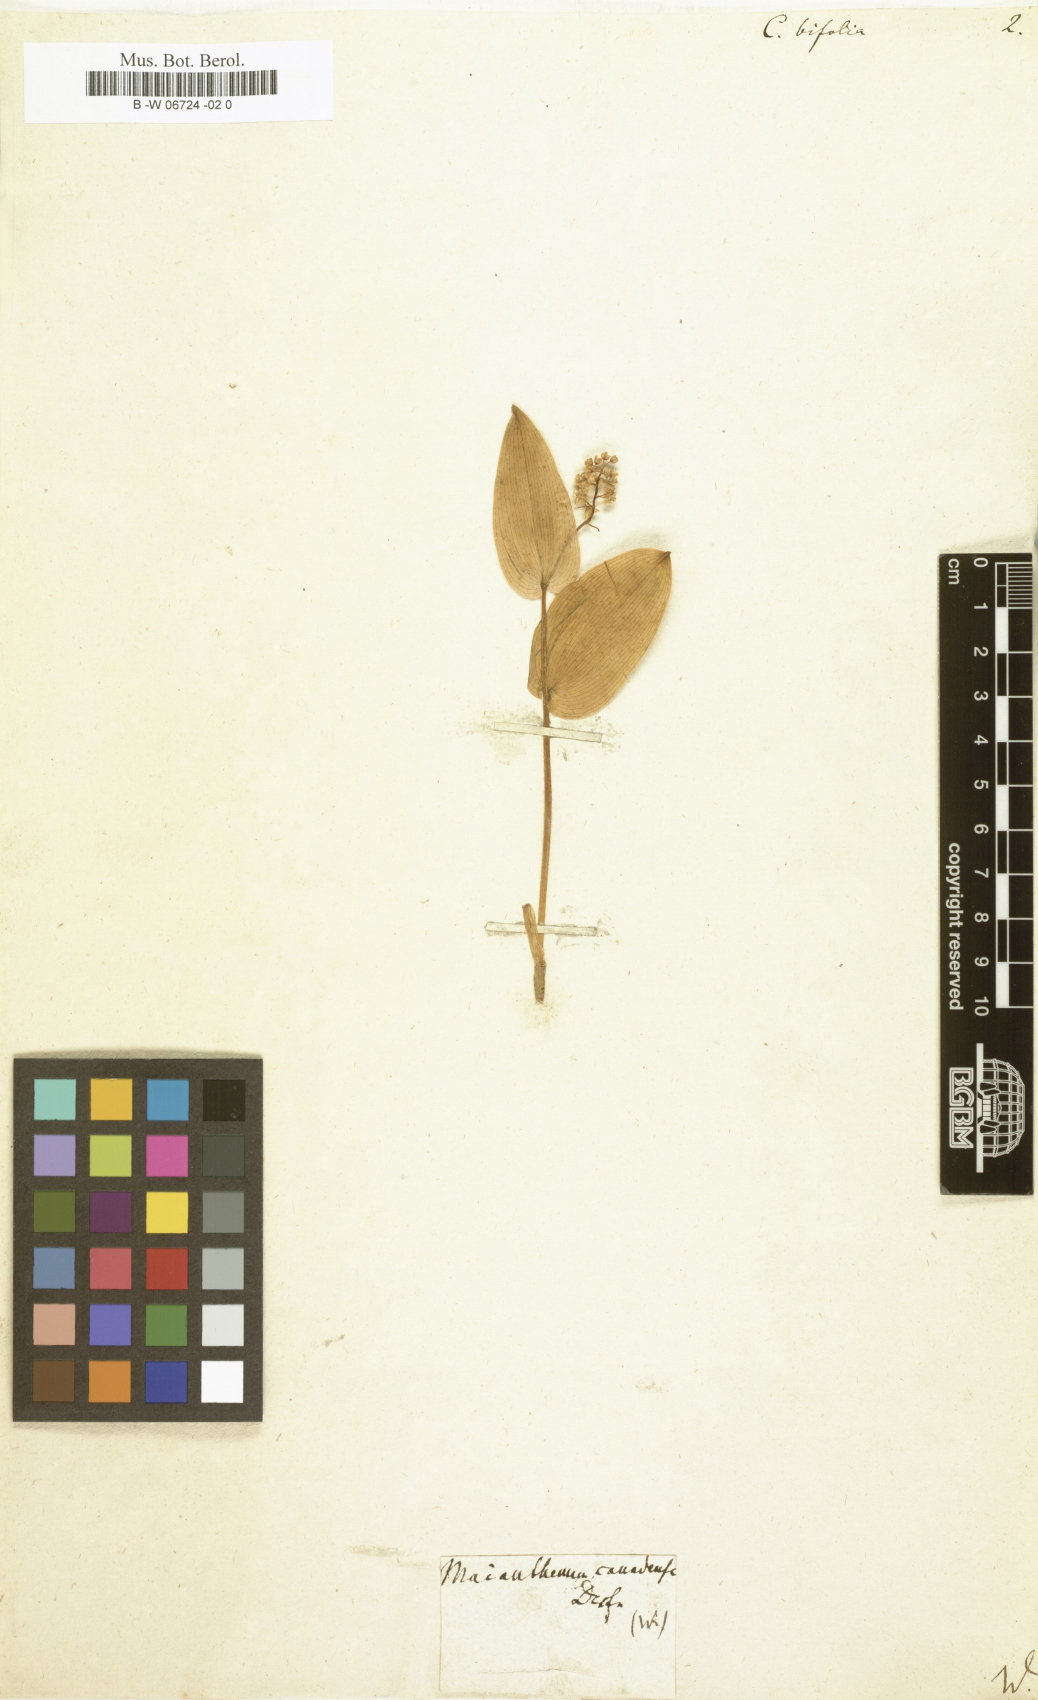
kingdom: Plantae
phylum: Tracheophyta
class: Liliopsida
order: Asparagales
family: Asparagaceae
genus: Maianthemum
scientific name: Maianthemum bifolium
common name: May lily
